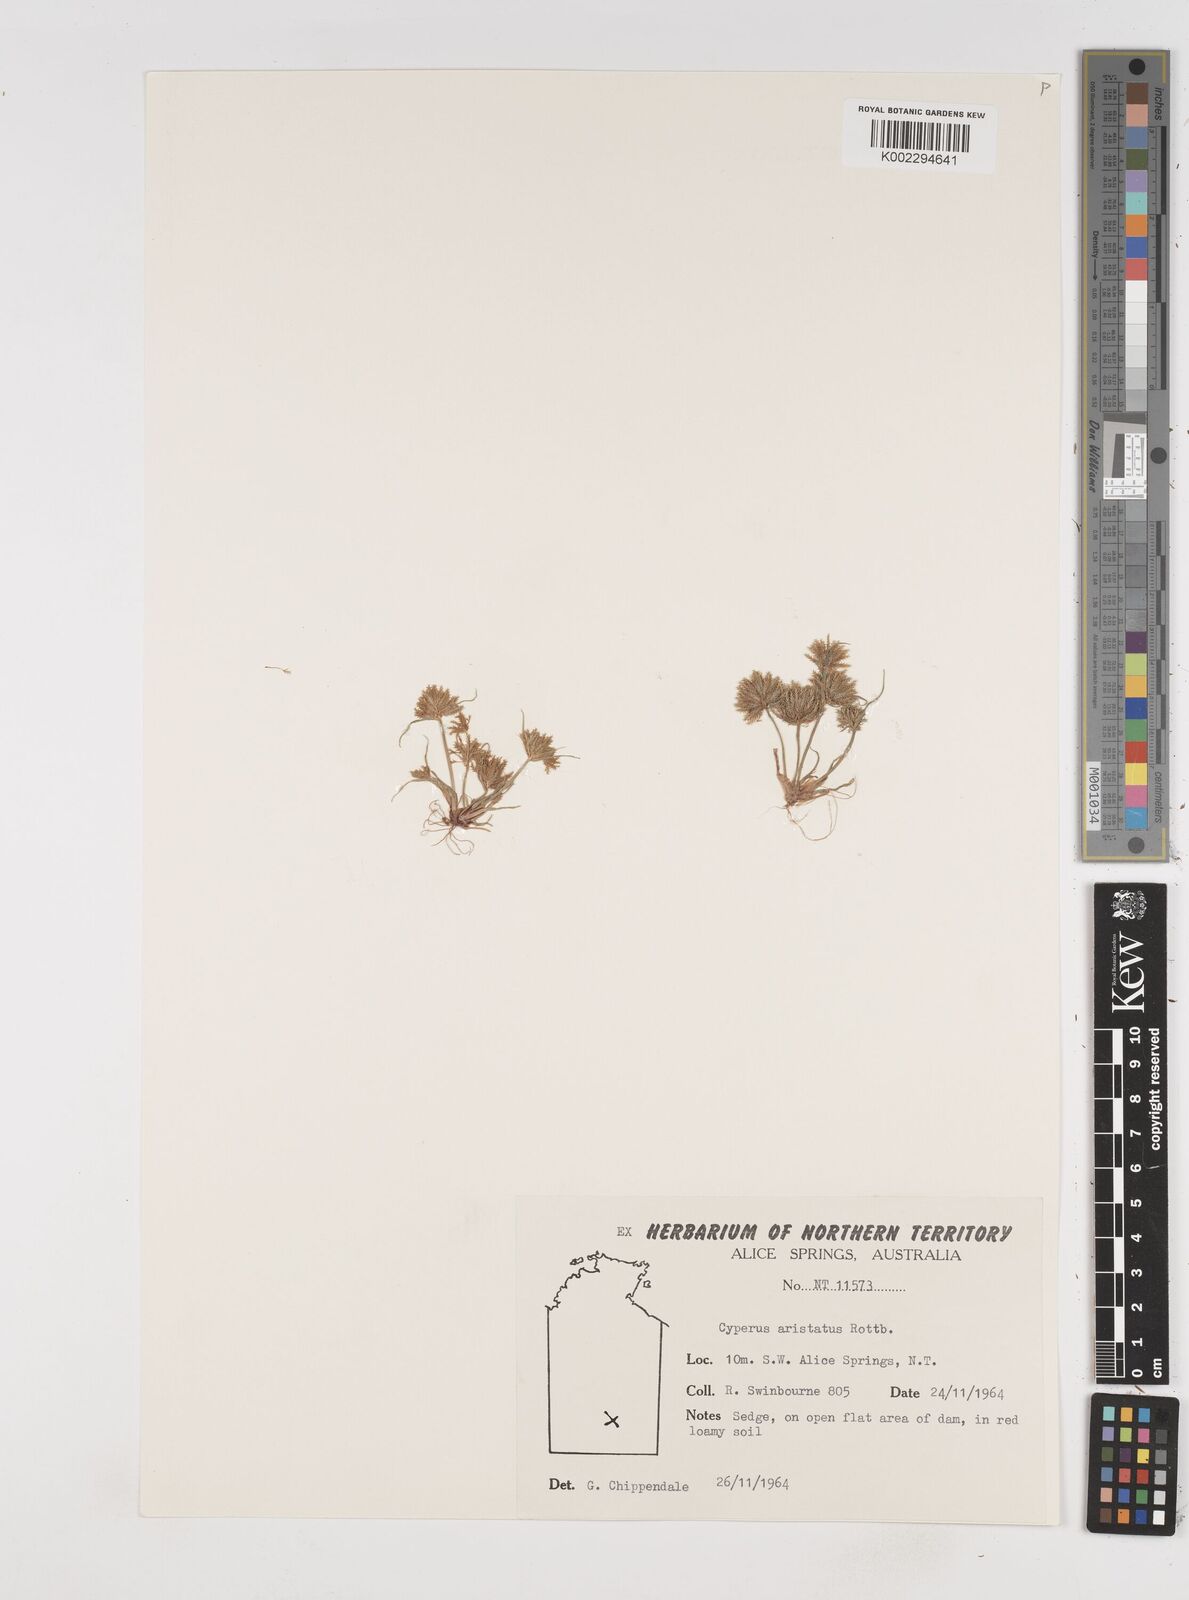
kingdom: Plantae
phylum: Tracheophyta
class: Liliopsida
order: Poales
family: Cyperaceae
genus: Cyperus
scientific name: Cyperus squarrosus
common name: Awned cyperus
